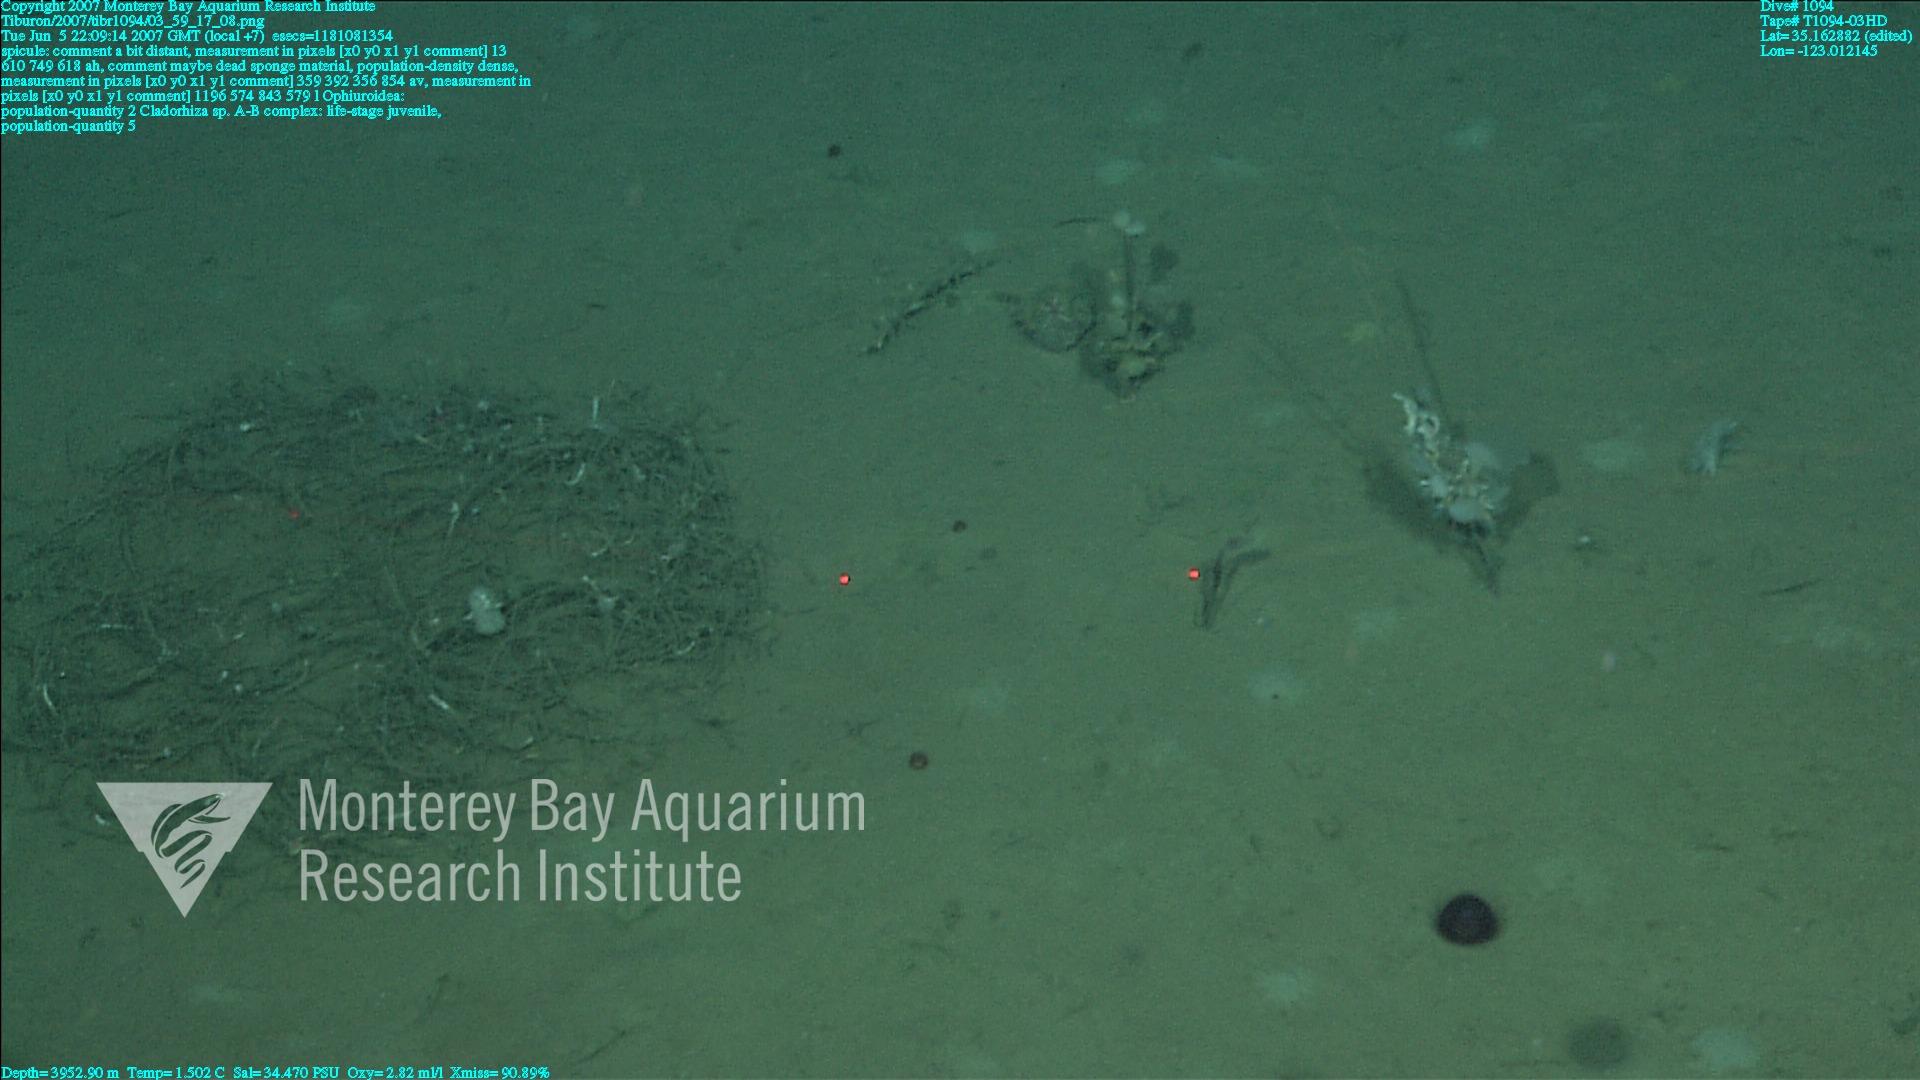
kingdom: Animalia
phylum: Porifera
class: Demospongiae
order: Poecilosclerida
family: Cladorhizidae
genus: Cladorhiza
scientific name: Cladorhiza
